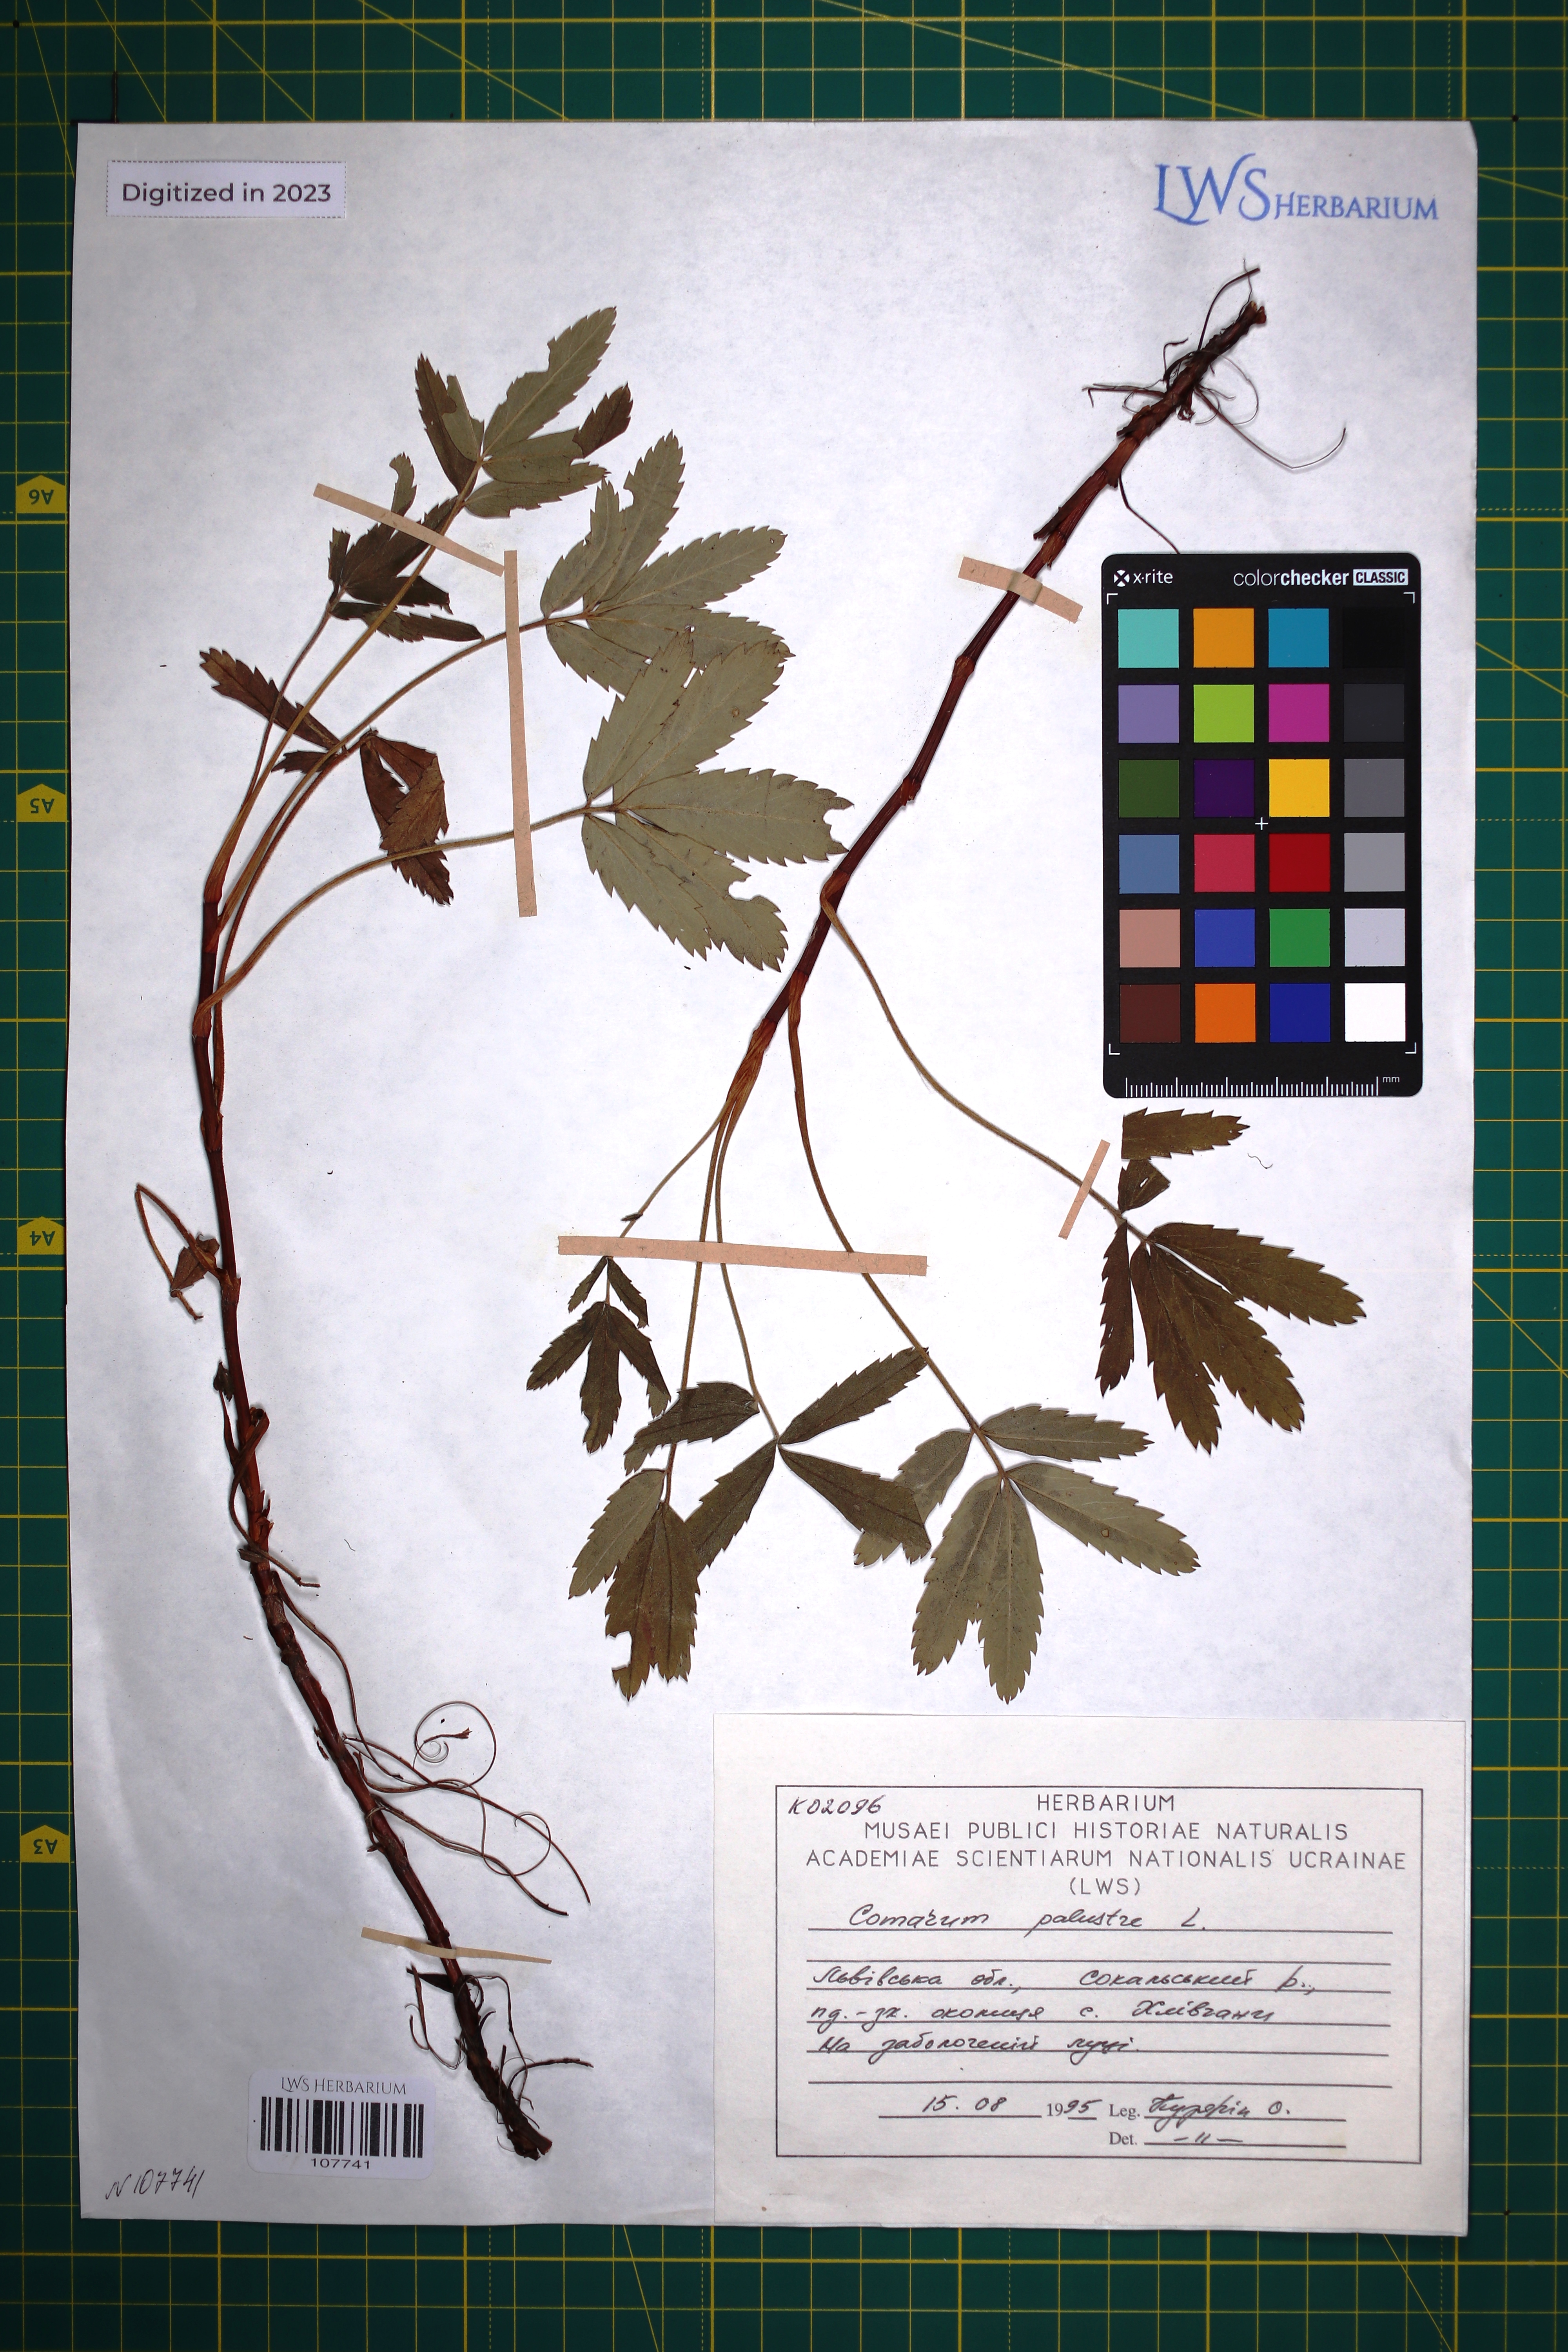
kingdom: Plantae
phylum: Tracheophyta
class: Magnoliopsida
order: Rosales
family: Rosaceae
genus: Comarum
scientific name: Comarum palustre
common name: Marsh cinquefoil
